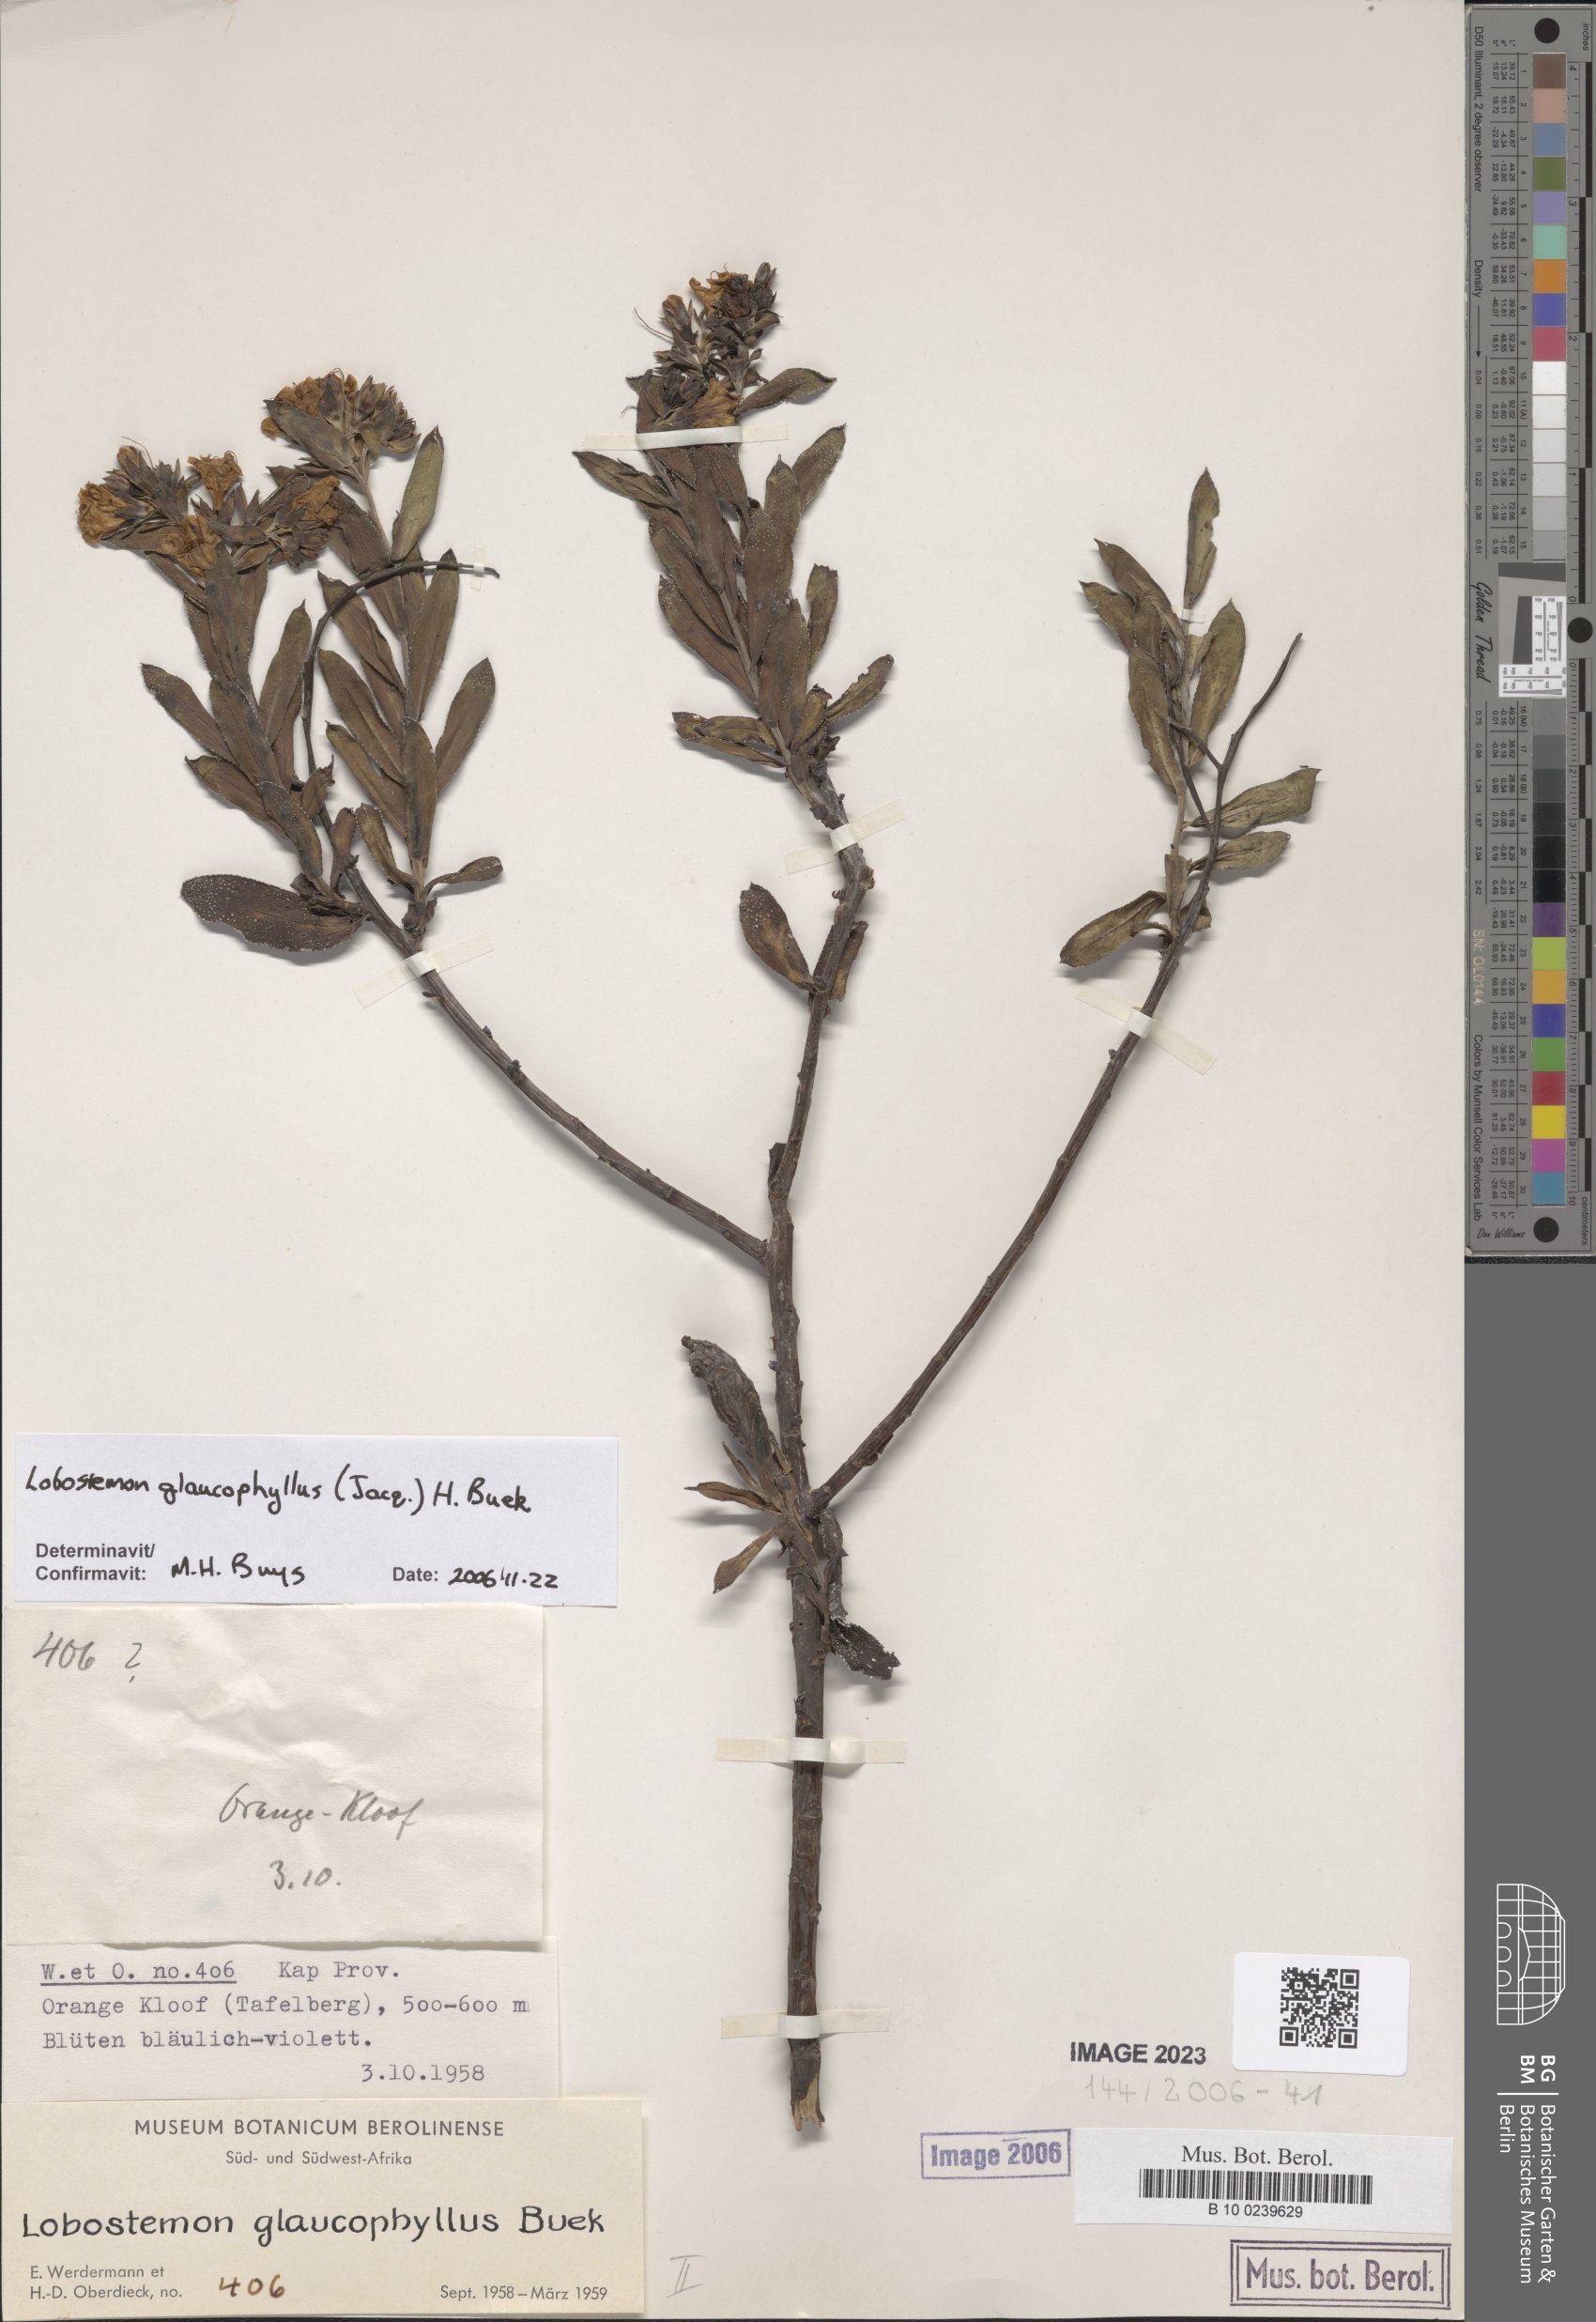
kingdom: Plantae
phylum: Tracheophyta
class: Magnoliopsida
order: Boraginales
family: Boraginaceae
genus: Lobostemon
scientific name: Lobostemon glaucophyllus
